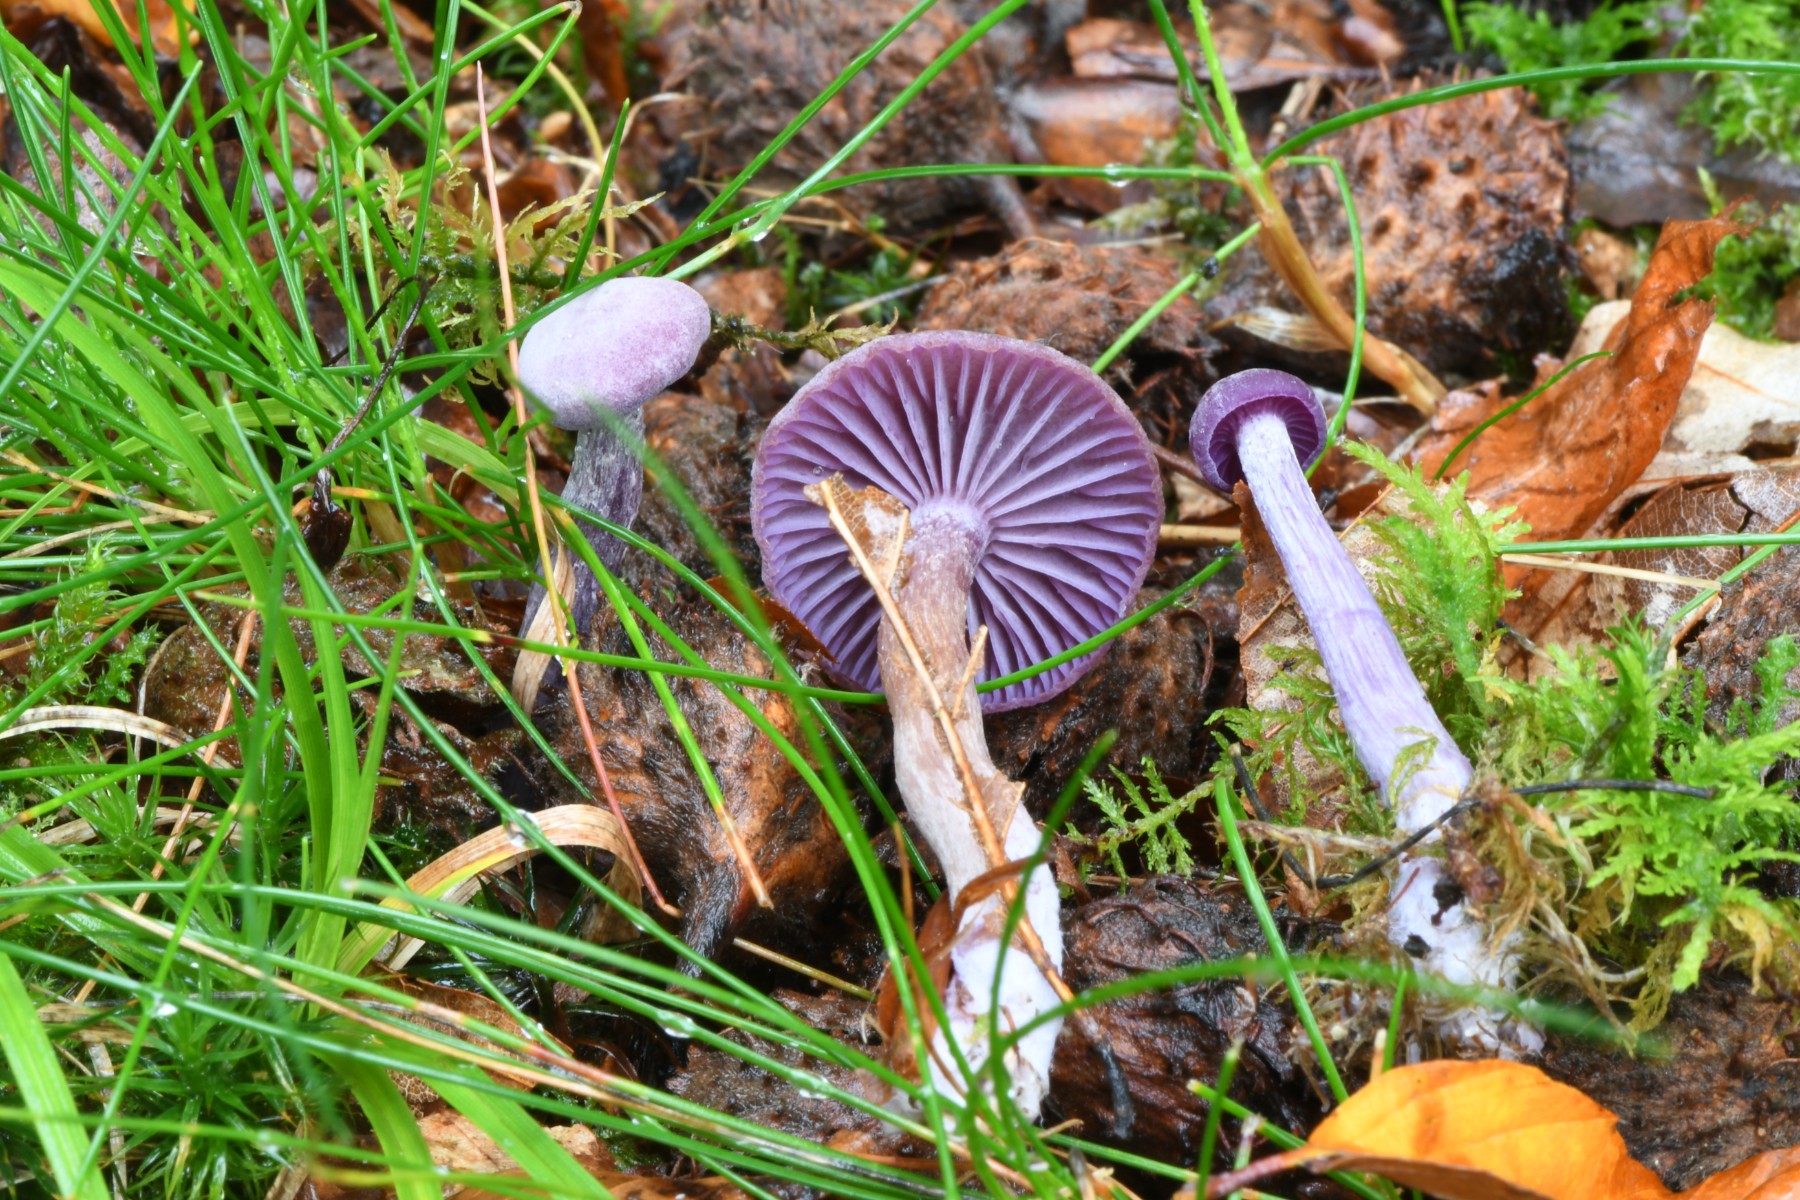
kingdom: Fungi
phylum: Basidiomycota
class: Agaricomycetes
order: Agaricales
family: Hydnangiaceae
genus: Laccaria
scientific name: Laccaria amethystina
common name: violet ametysthat
